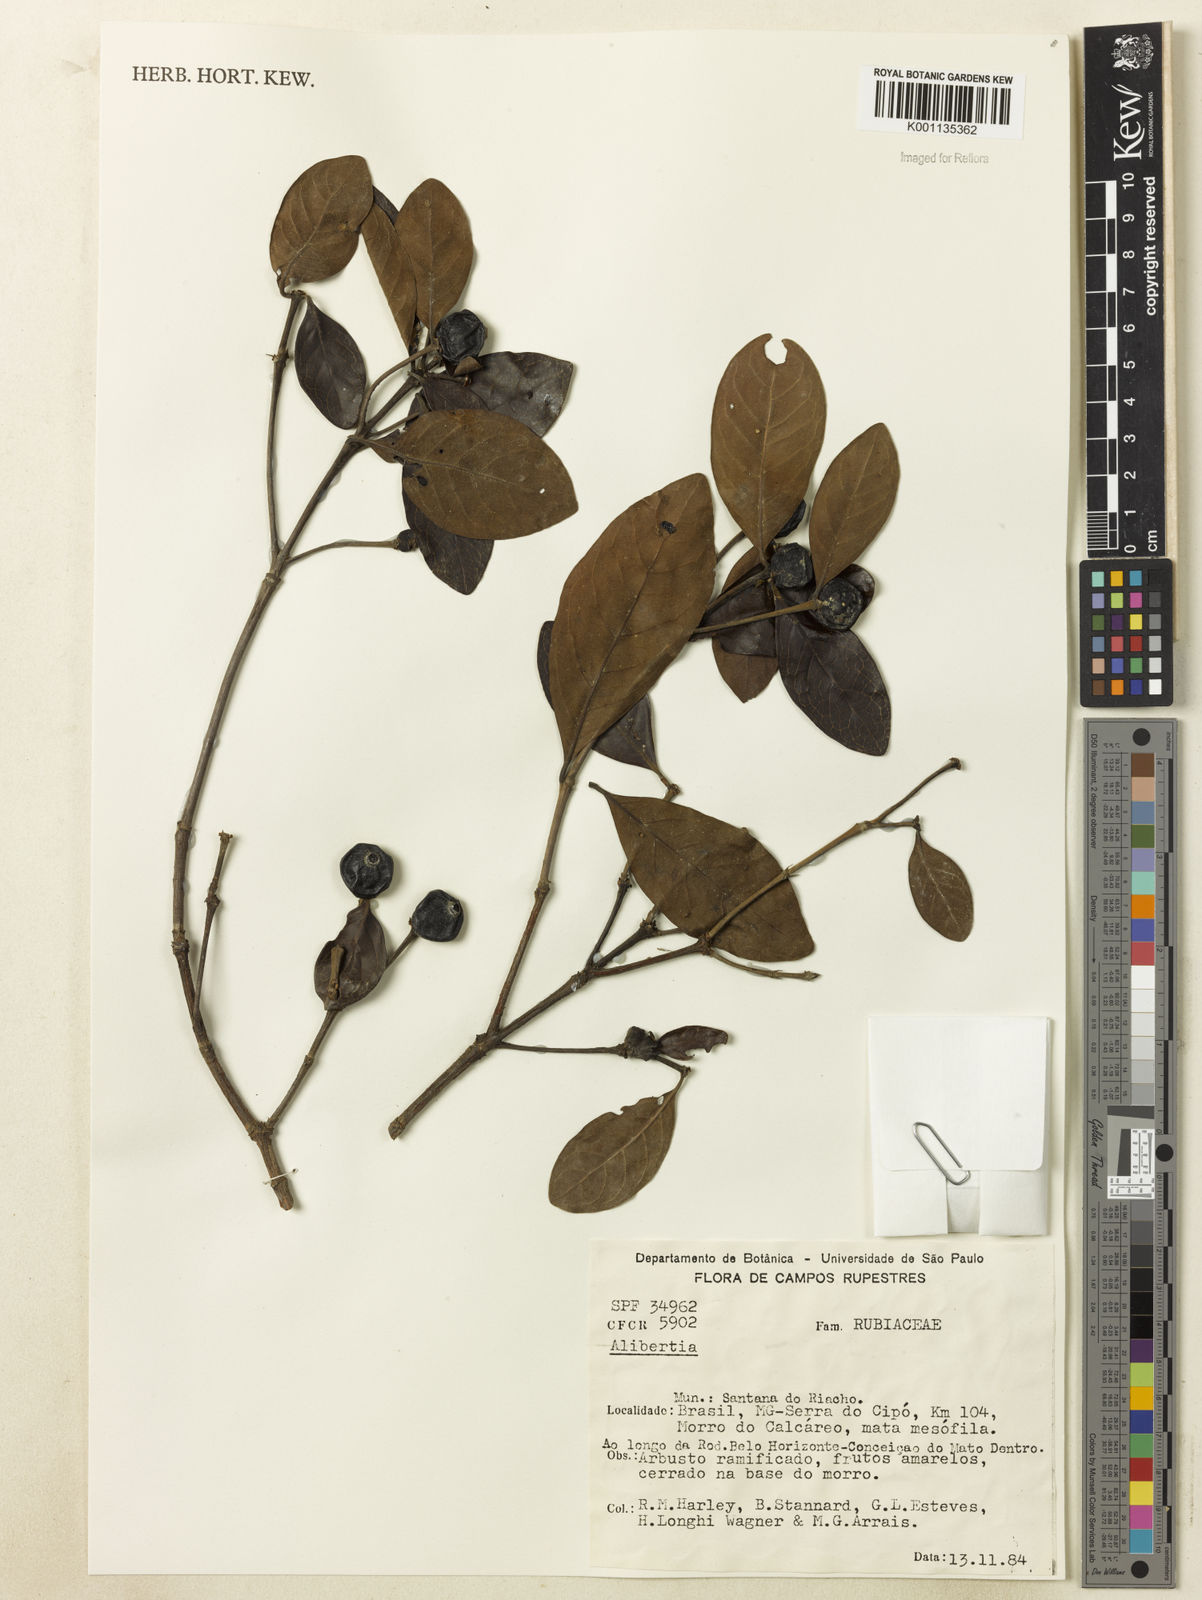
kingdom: Plantae
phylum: Tracheophyta
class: Magnoliopsida
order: Gentianales
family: Rubiaceae
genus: Cordiera
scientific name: Cordiera elliptica
